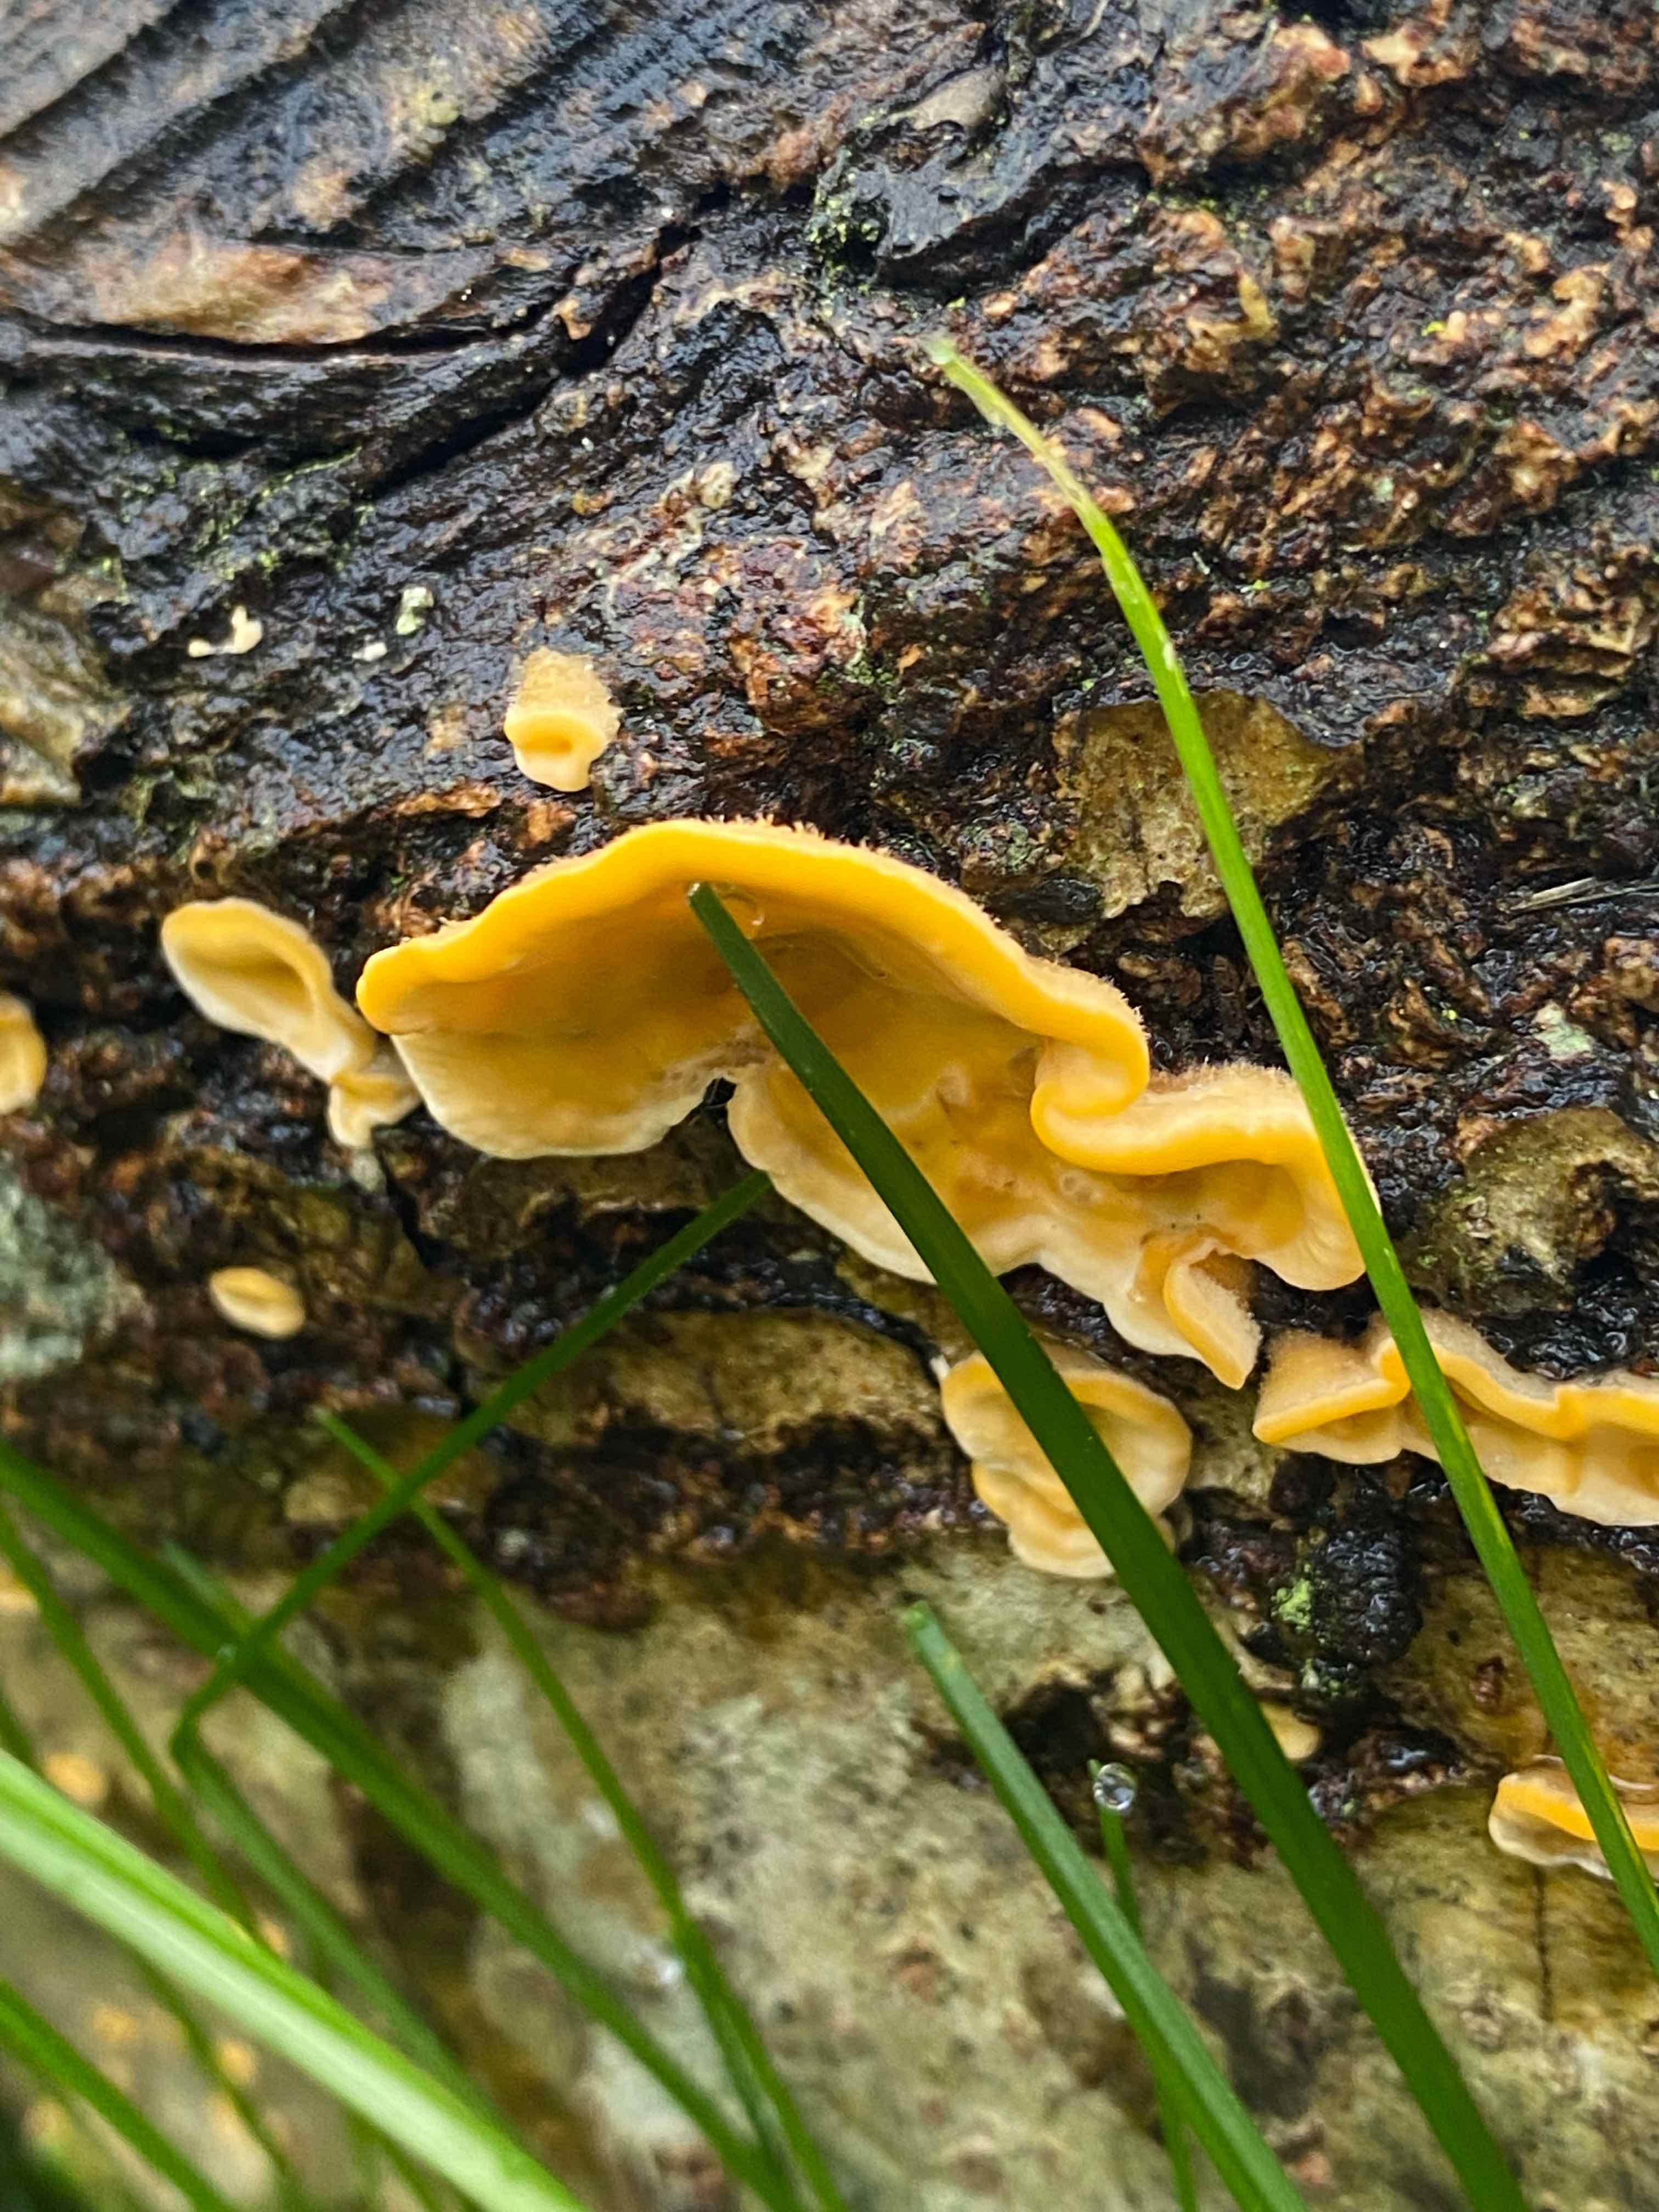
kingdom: Fungi
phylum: Basidiomycota
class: Agaricomycetes
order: Russulales
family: Stereaceae
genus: Stereum
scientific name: Stereum hirsutum
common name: håret lædersvamp
